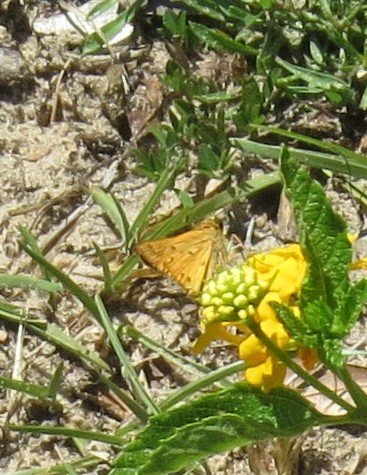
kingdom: Animalia
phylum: Arthropoda
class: Insecta
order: Lepidoptera
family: Hesperiidae
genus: Hylephila
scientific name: Hylephila phyleus
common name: Fiery Skipper
